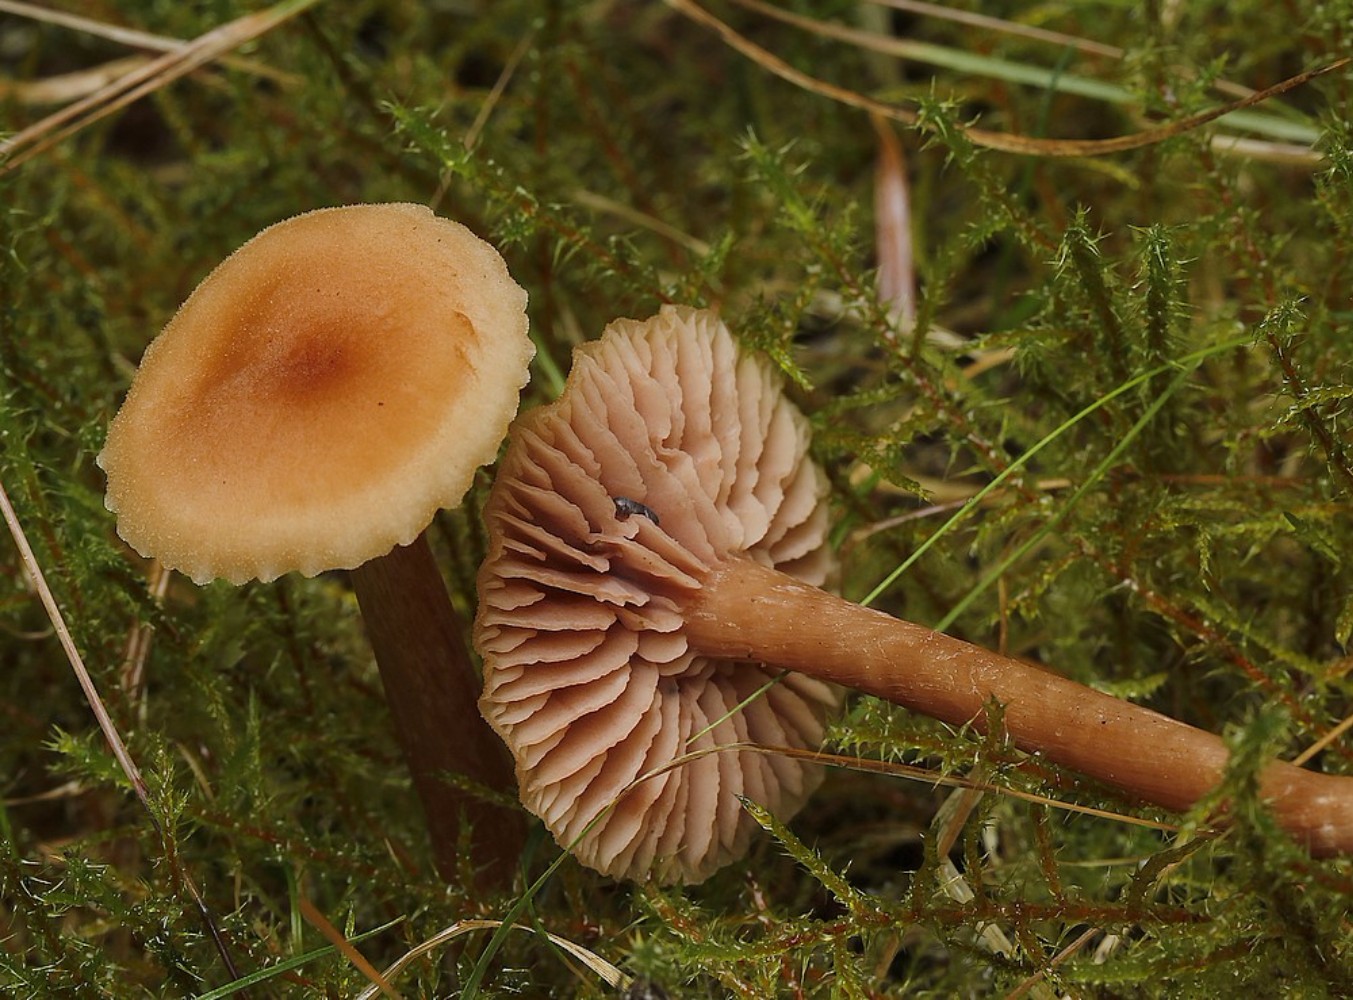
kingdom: Fungi
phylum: Basidiomycota
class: Agaricomycetes
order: Agaricales
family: Hydnangiaceae
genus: Laccaria
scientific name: Laccaria laccata
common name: rød ametysthat
